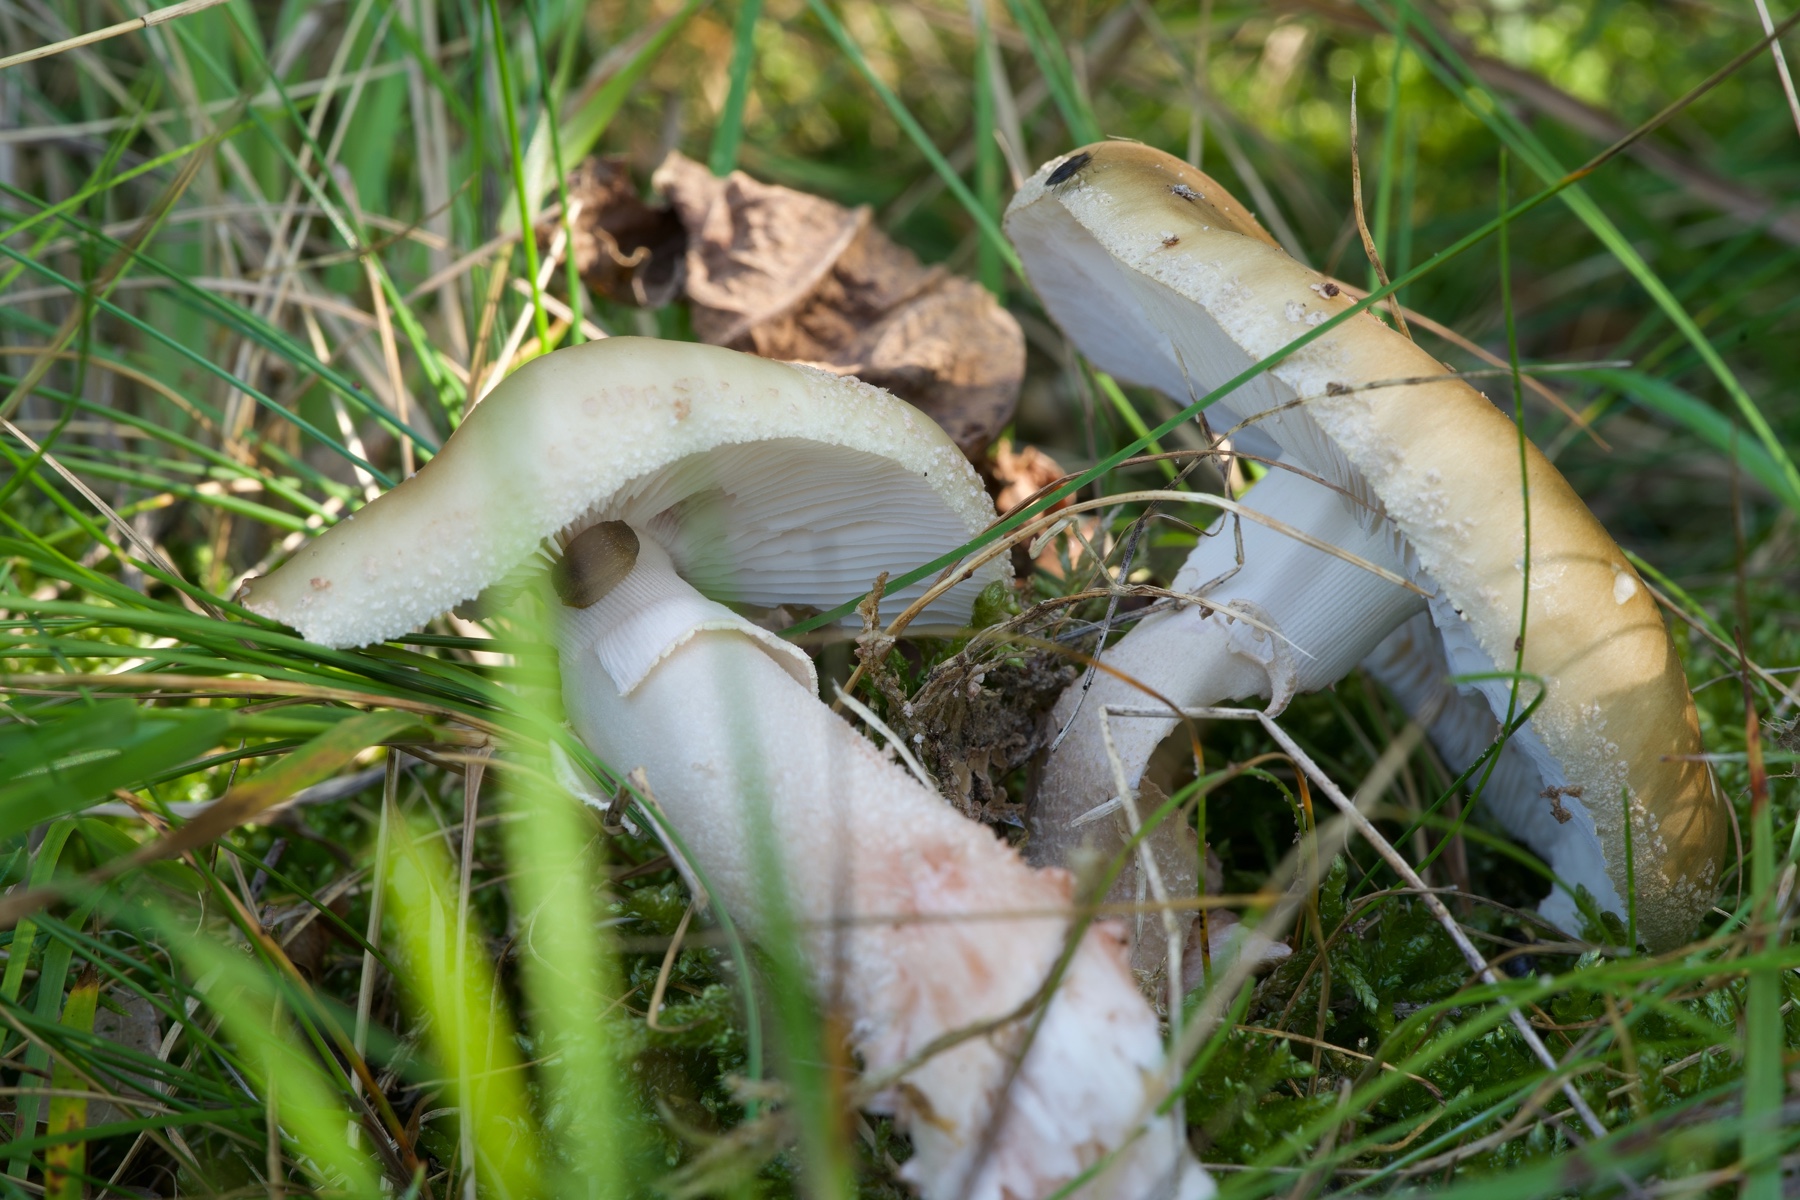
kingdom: Fungi
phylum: Basidiomycota
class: Agaricomycetes
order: Agaricales
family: Amanitaceae
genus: Amanita
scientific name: Amanita rubescens
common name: rødmende fluesvamp
